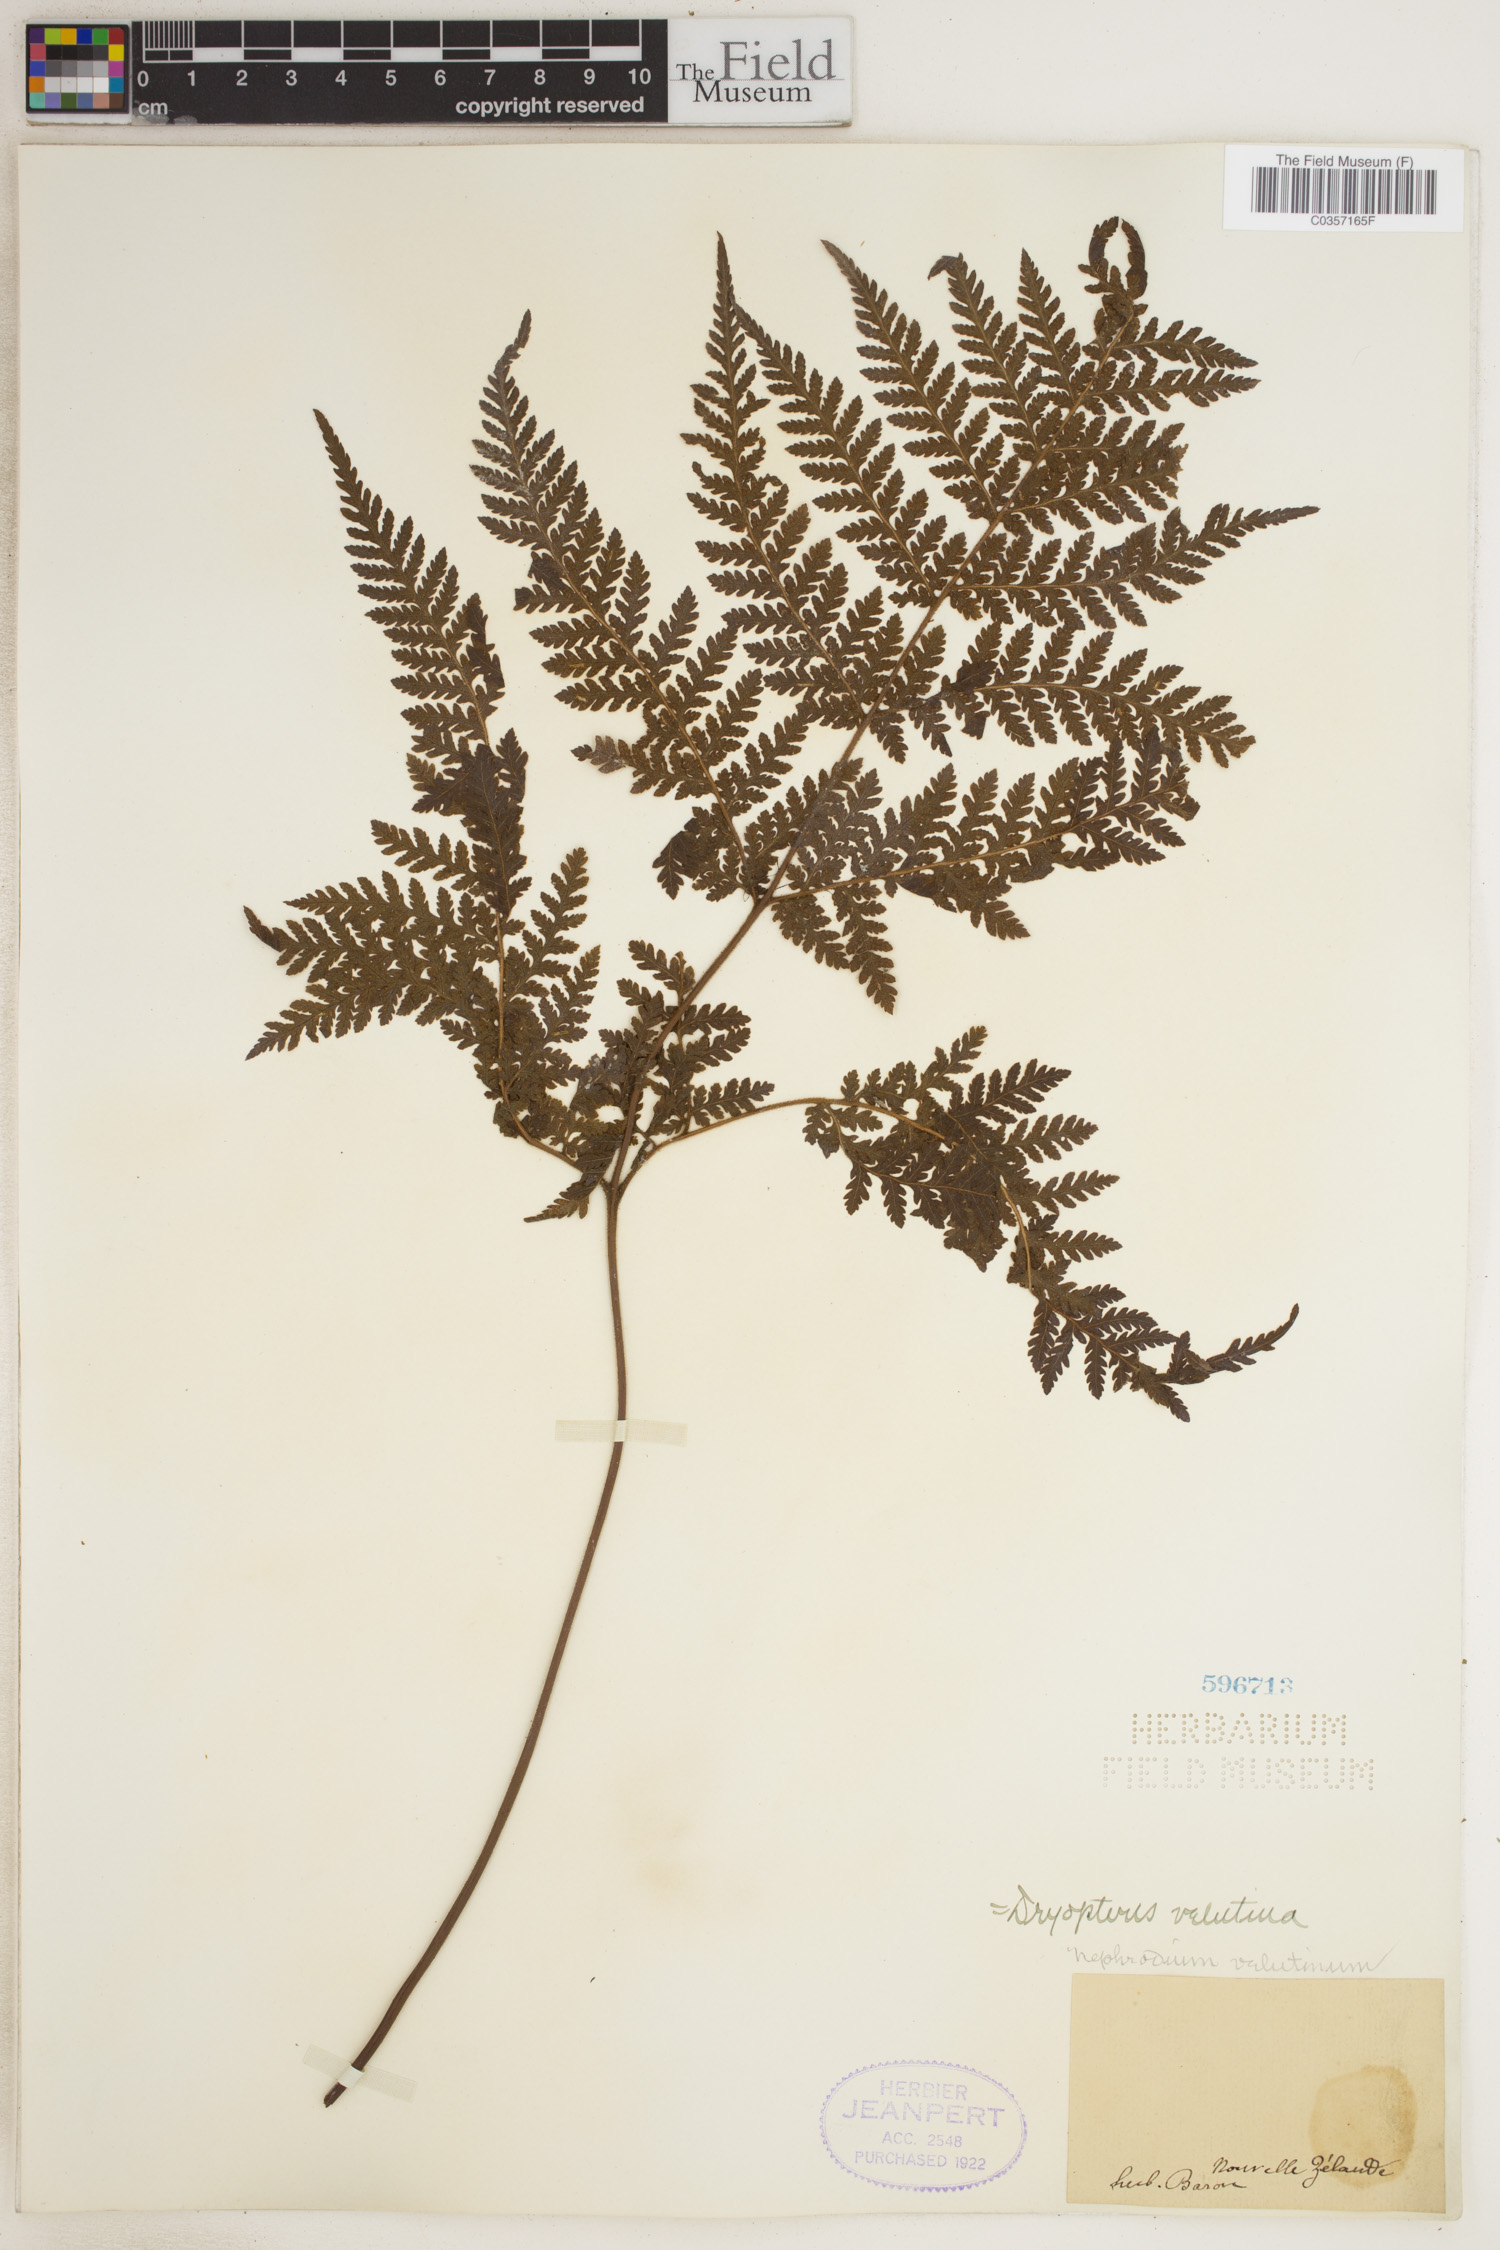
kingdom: Plantae
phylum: Tracheophyta
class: Polypodiopsida
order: Polypodiales
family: Dryopteridaceae
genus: Lastreopsis
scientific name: Lastreopsis velutina
